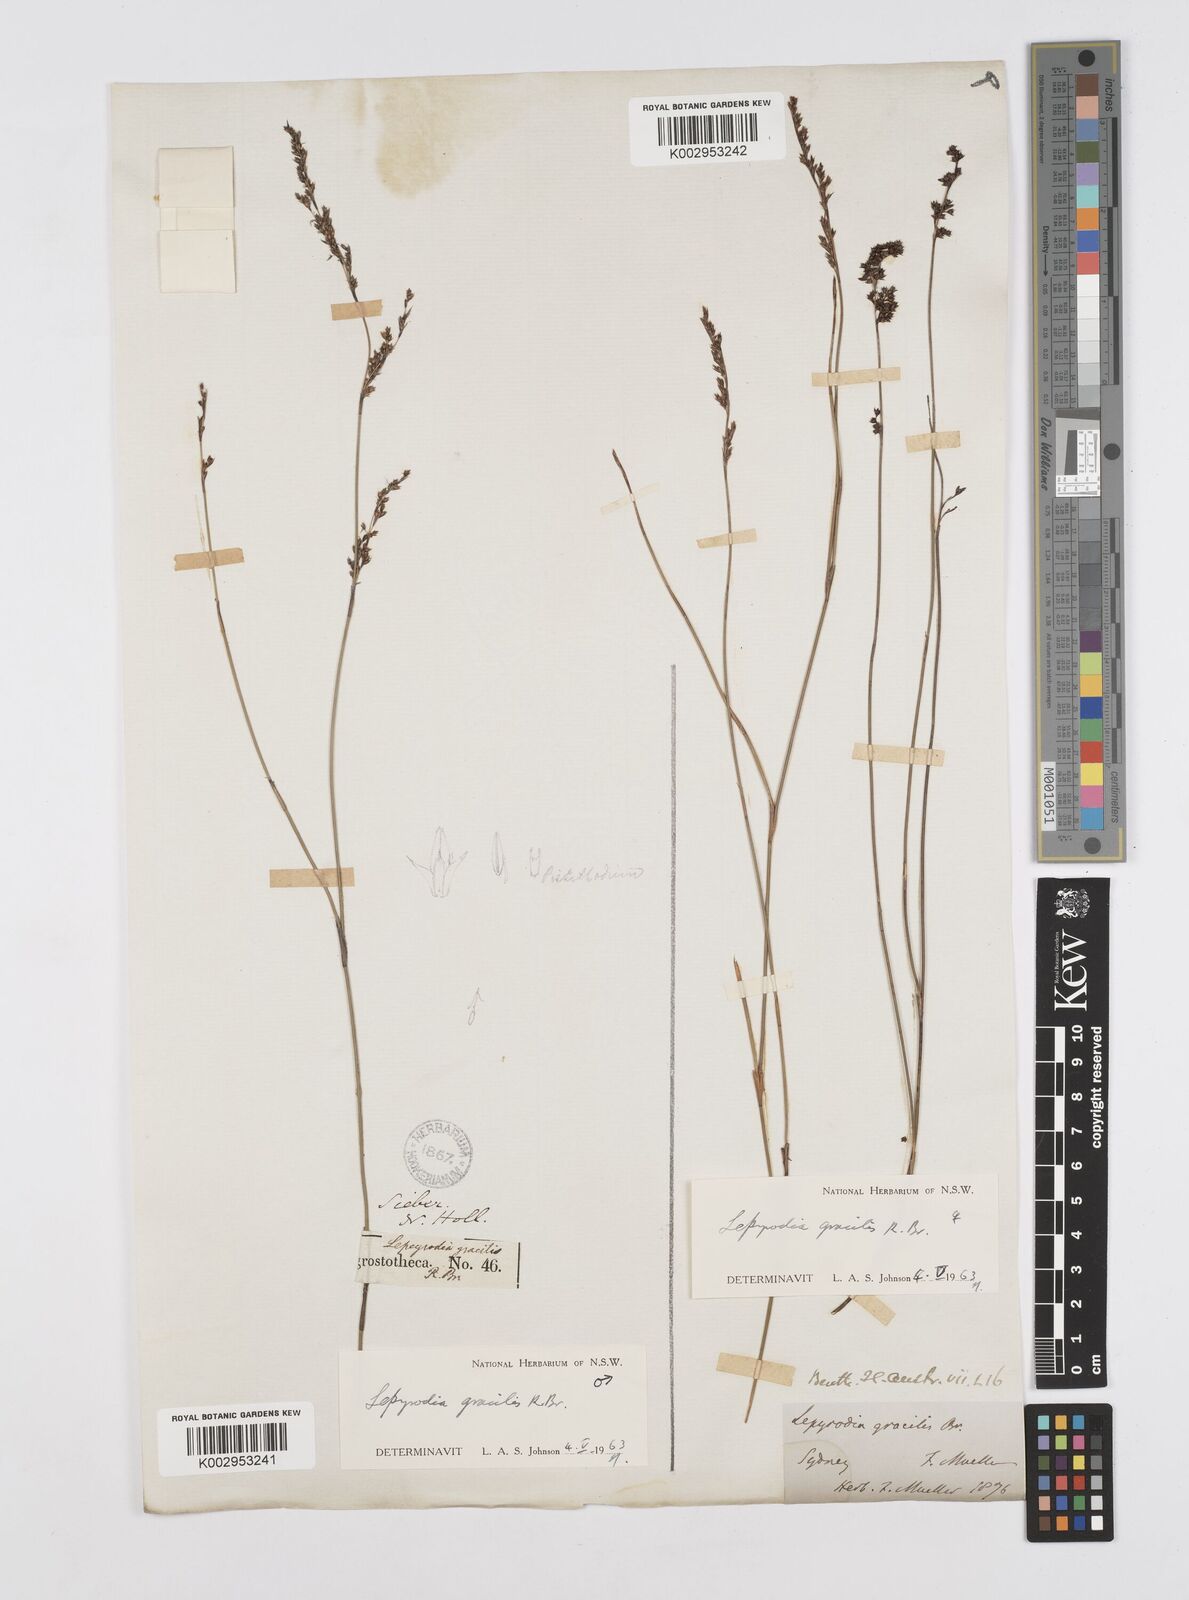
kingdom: Plantae
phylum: Tracheophyta
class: Liliopsida
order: Poales
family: Restionaceae
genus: Sporadanthus
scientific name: Sporadanthus gracilis
